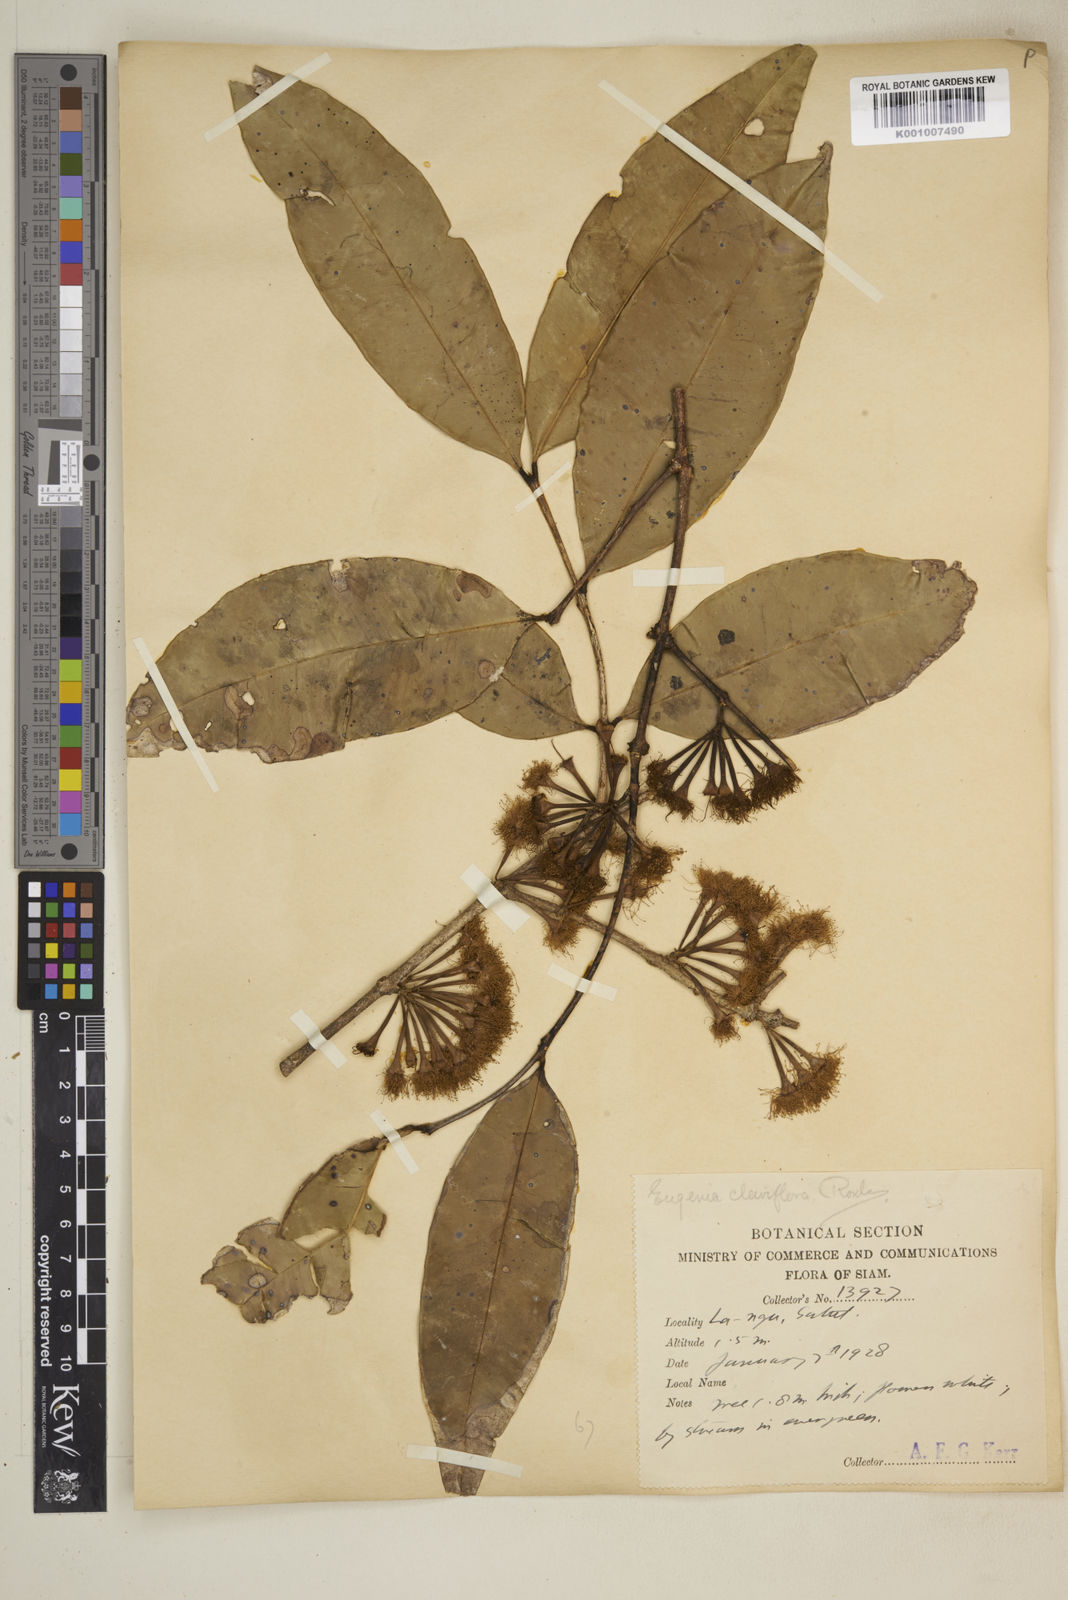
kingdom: Plantae
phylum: Tracheophyta
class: Magnoliopsida
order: Myrtales
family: Myrtaceae
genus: Syzygium
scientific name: Syzygium claviflorum
